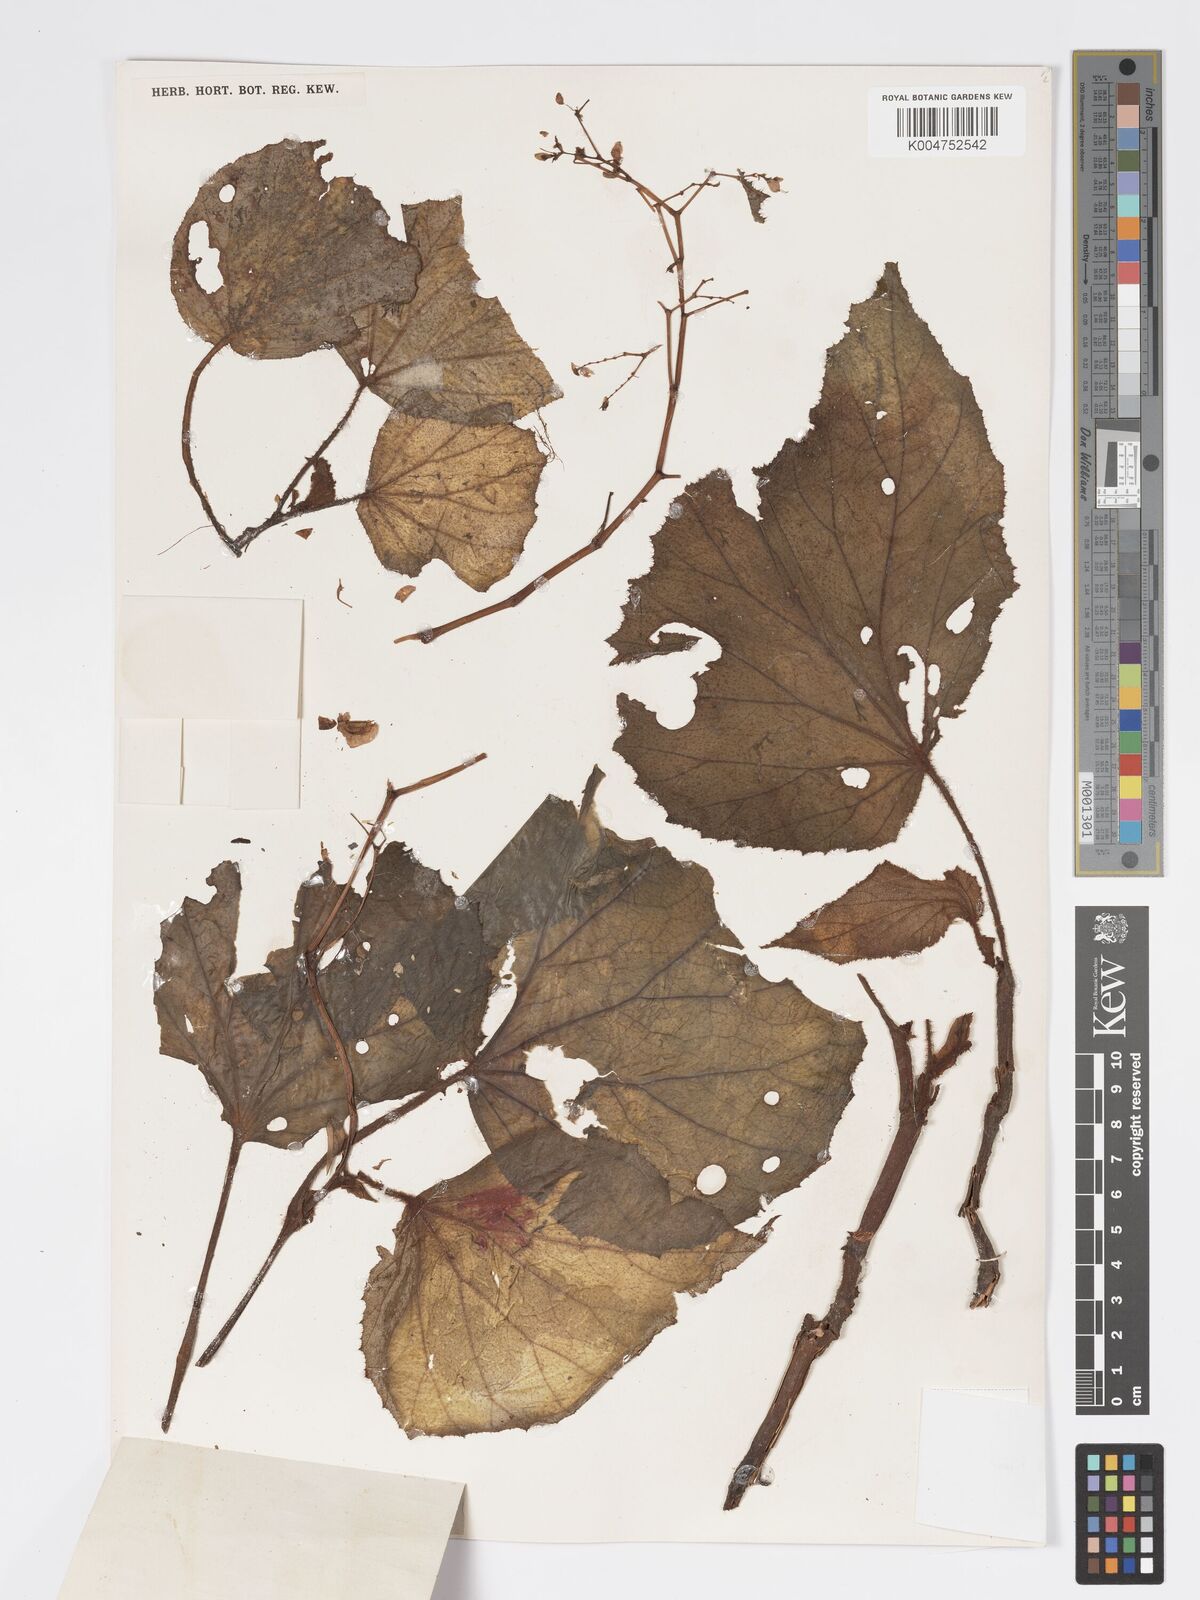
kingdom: Plantae
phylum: Tracheophyta
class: Magnoliopsida
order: Cucurbitales
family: Begoniaceae
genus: Begonia
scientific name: Begonia postarii
